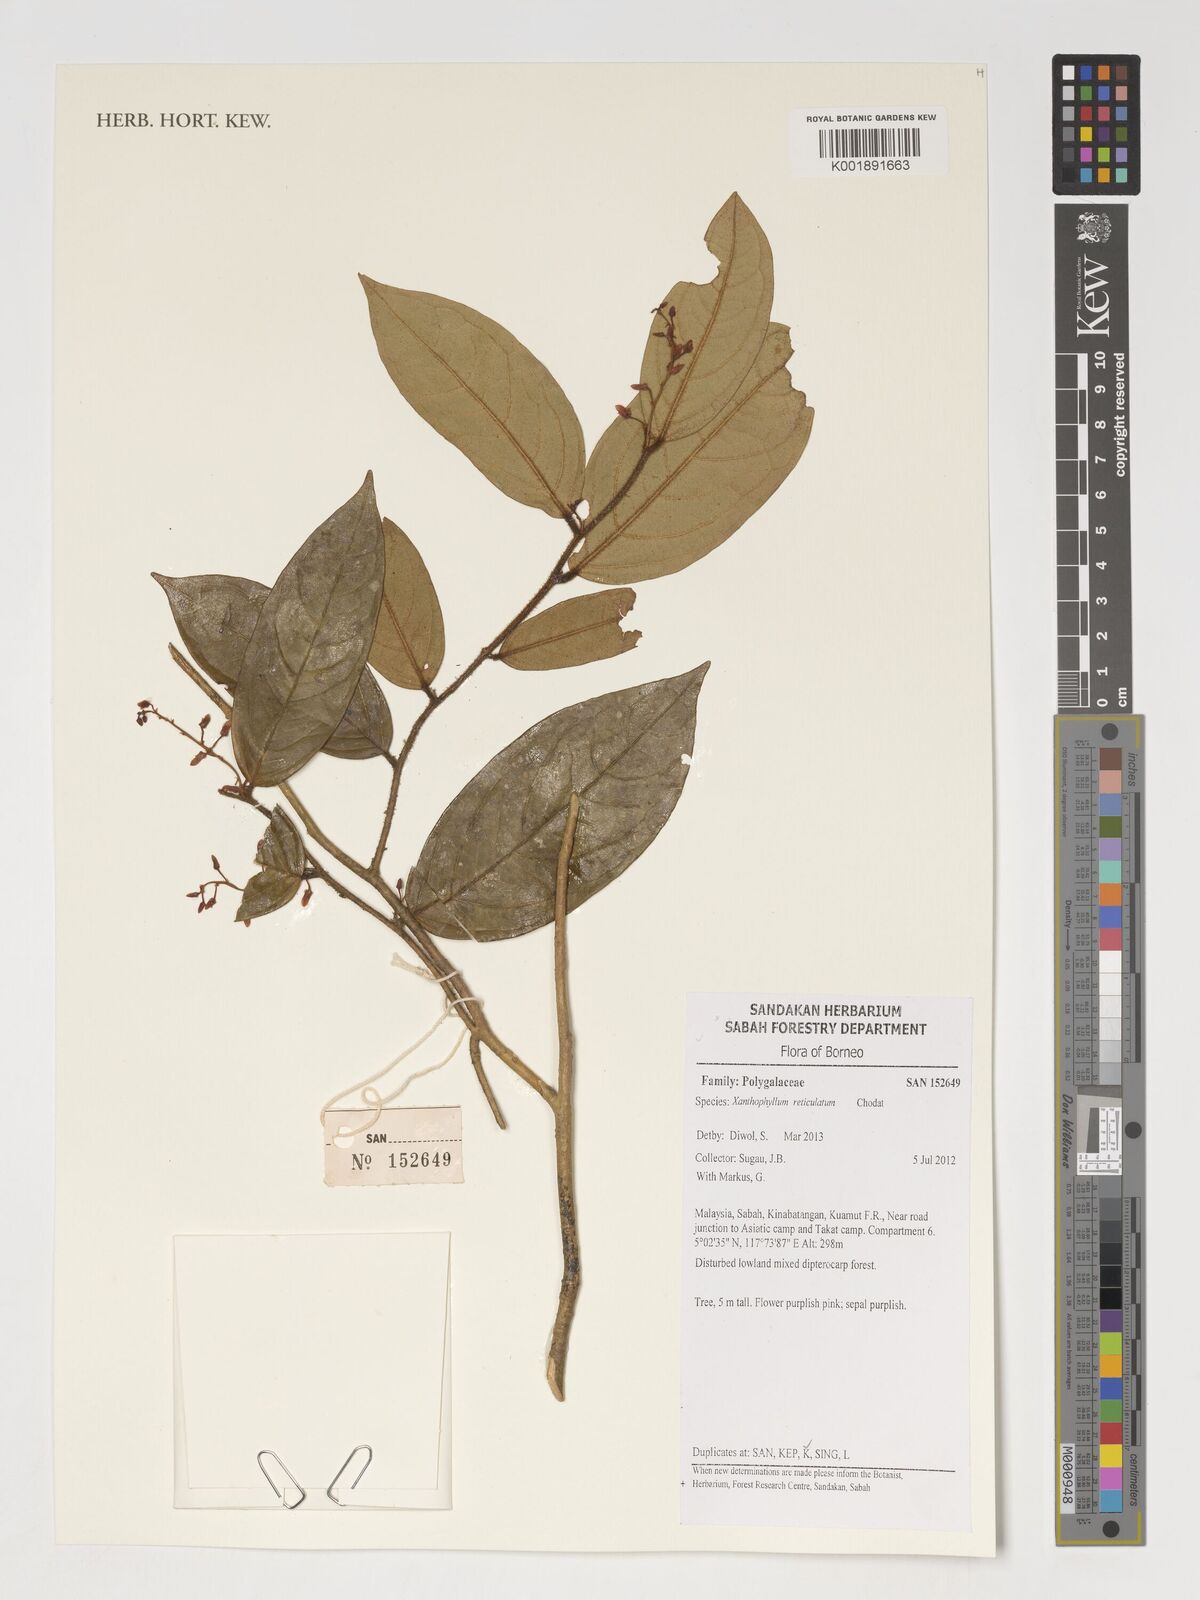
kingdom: Plantae
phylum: Tracheophyta
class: Magnoliopsida
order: Fabales
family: Polygalaceae
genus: Xanthophyllum
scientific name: Xanthophyllum reticulatum
